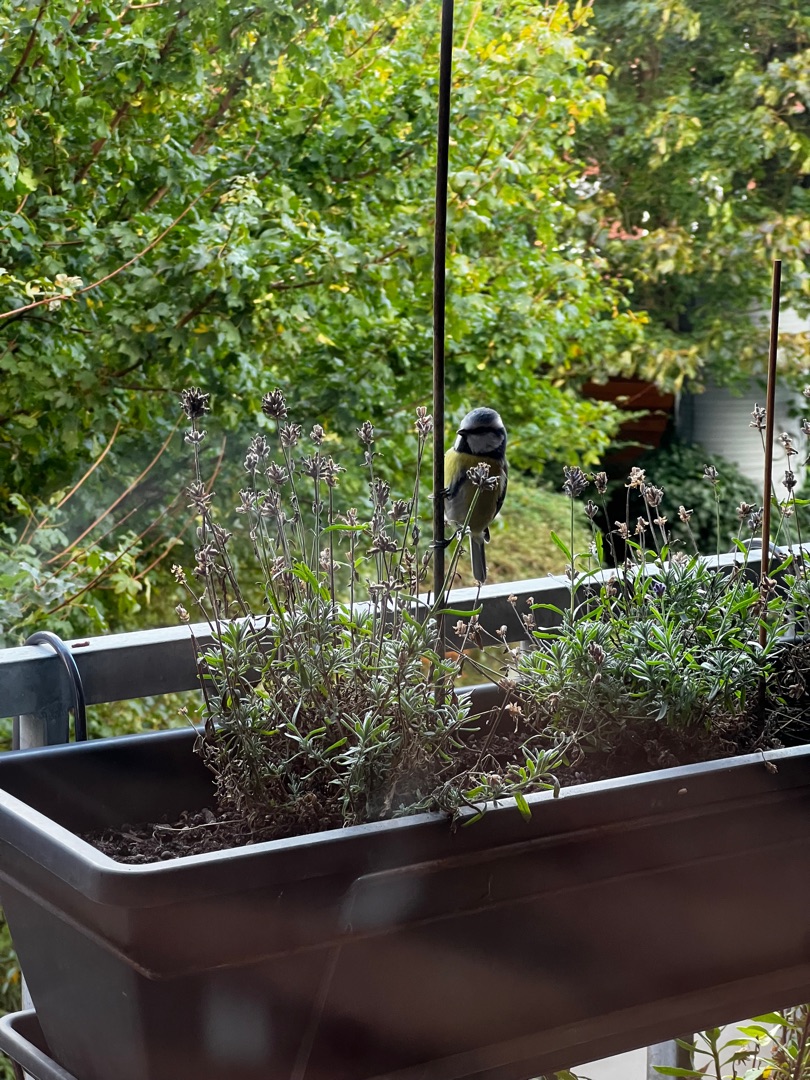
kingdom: Animalia
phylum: Chordata
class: Aves
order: Passeriformes
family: Paridae
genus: Cyanistes
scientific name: Cyanistes caeruleus
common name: Blåmejse
